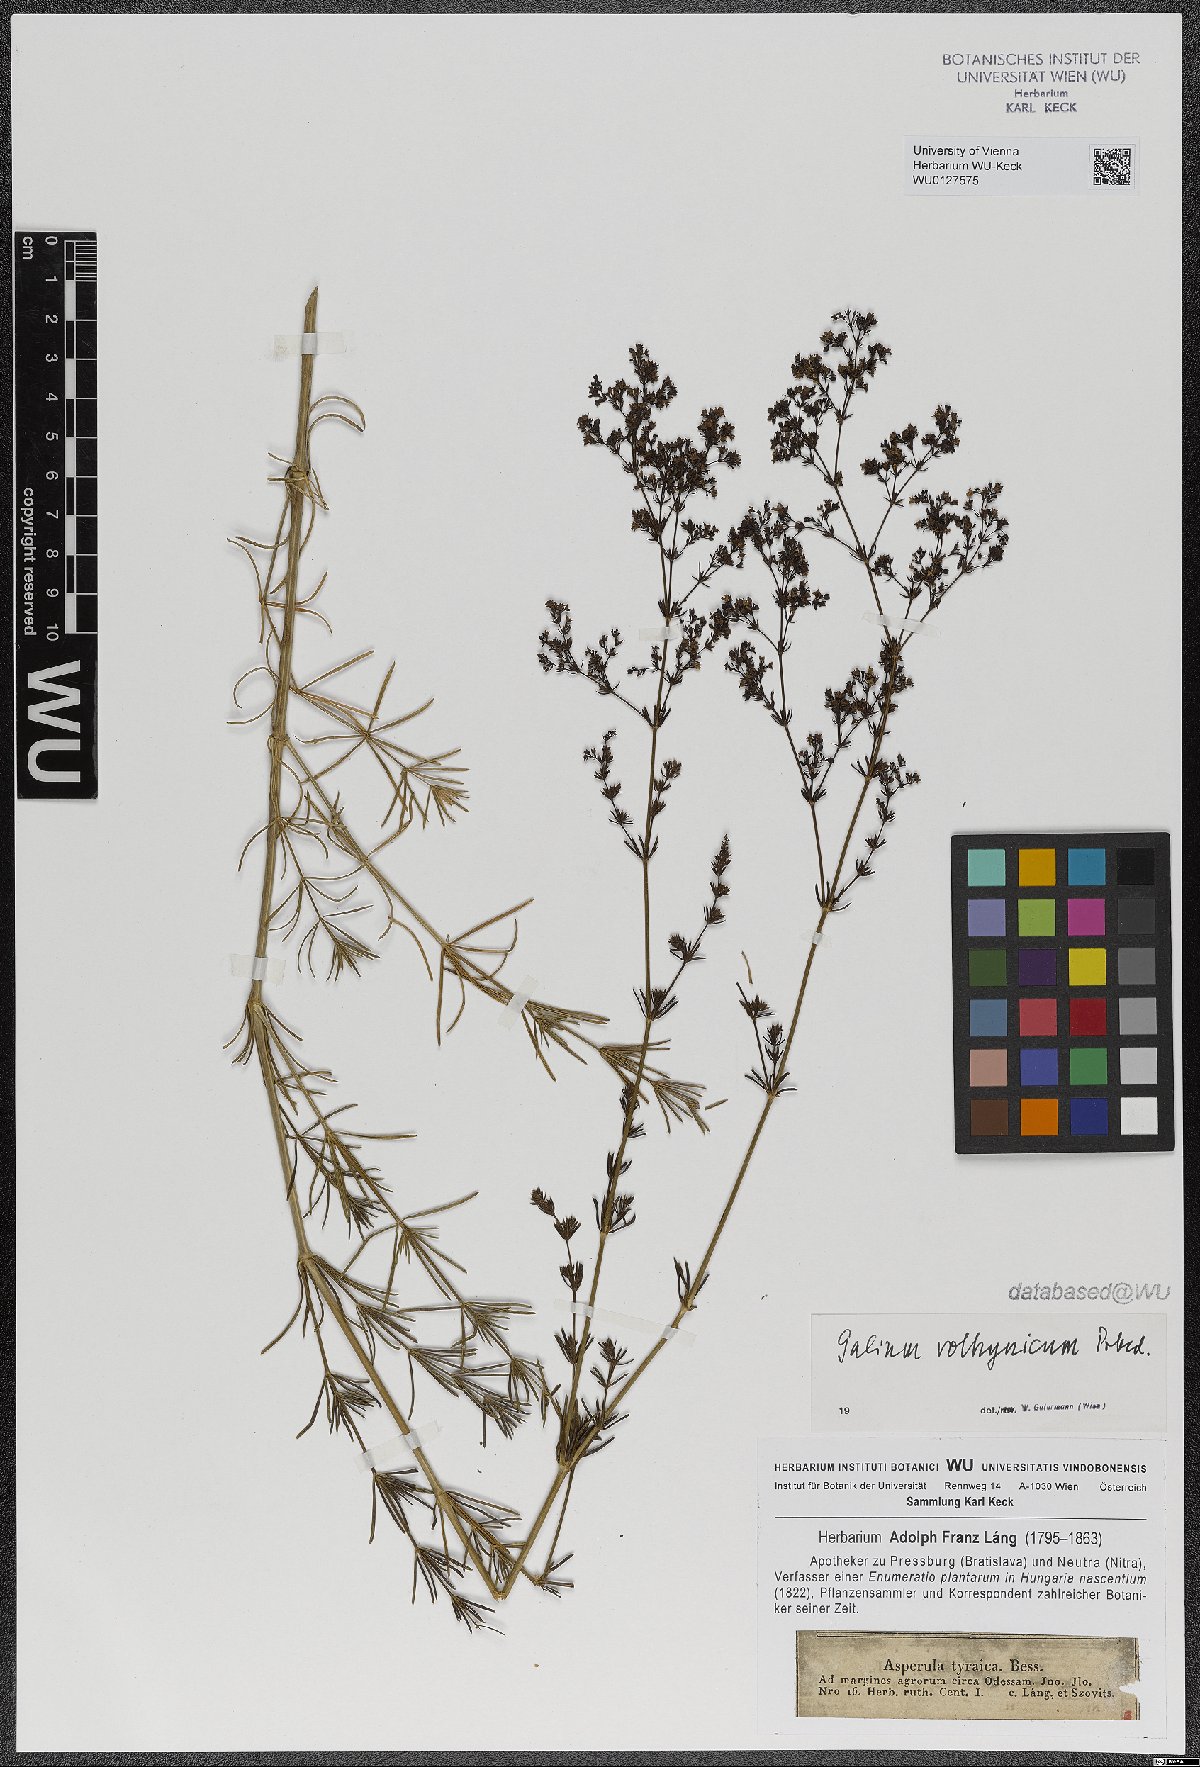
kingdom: Plantae
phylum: Tracheophyta
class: Magnoliopsida
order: Gentianales
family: Rubiaceae
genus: Galium
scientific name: Galium volhynicum
